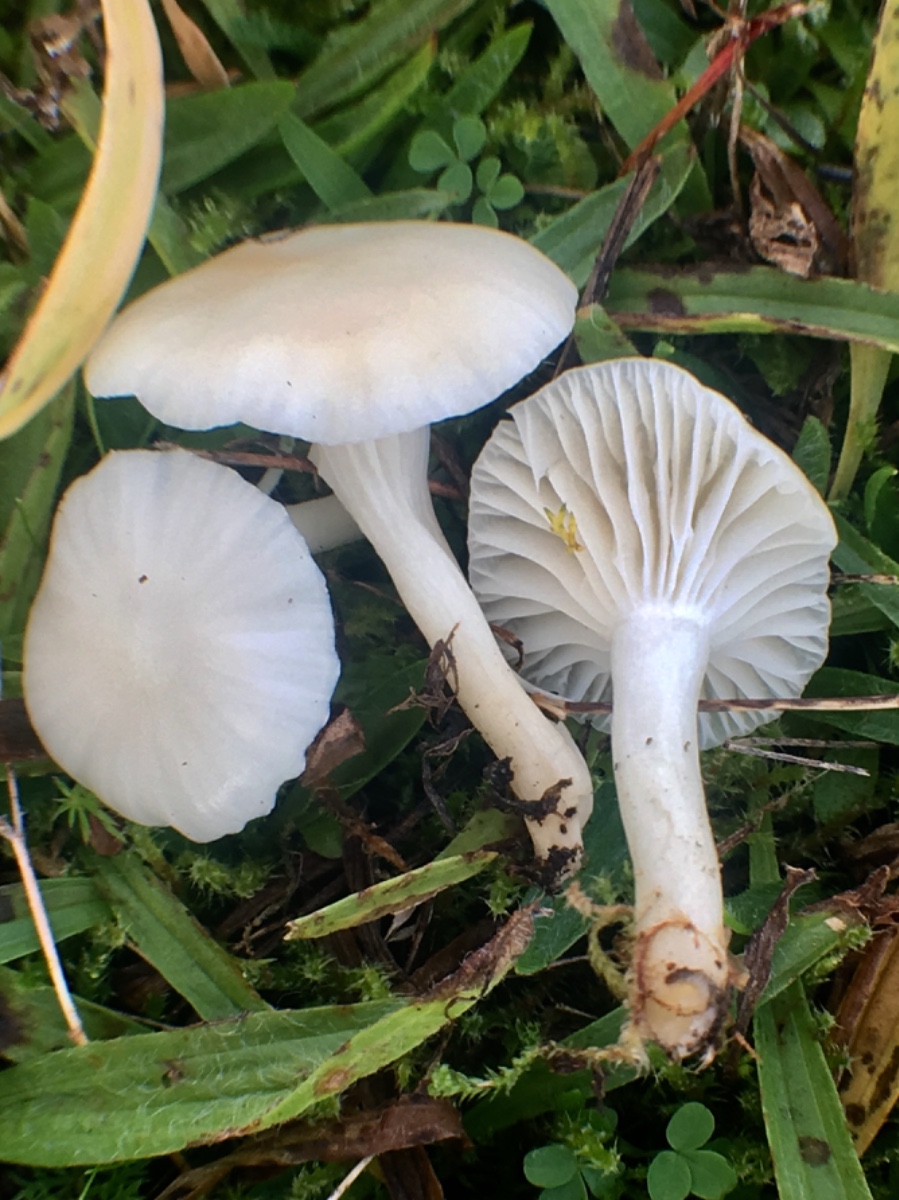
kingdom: Fungi
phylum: Basidiomycota
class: Agaricomycetes
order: Agaricales
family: Hygrophoraceae
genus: Cuphophyllus
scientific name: Cuphophyllus virgineus
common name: snehvid vokshat
